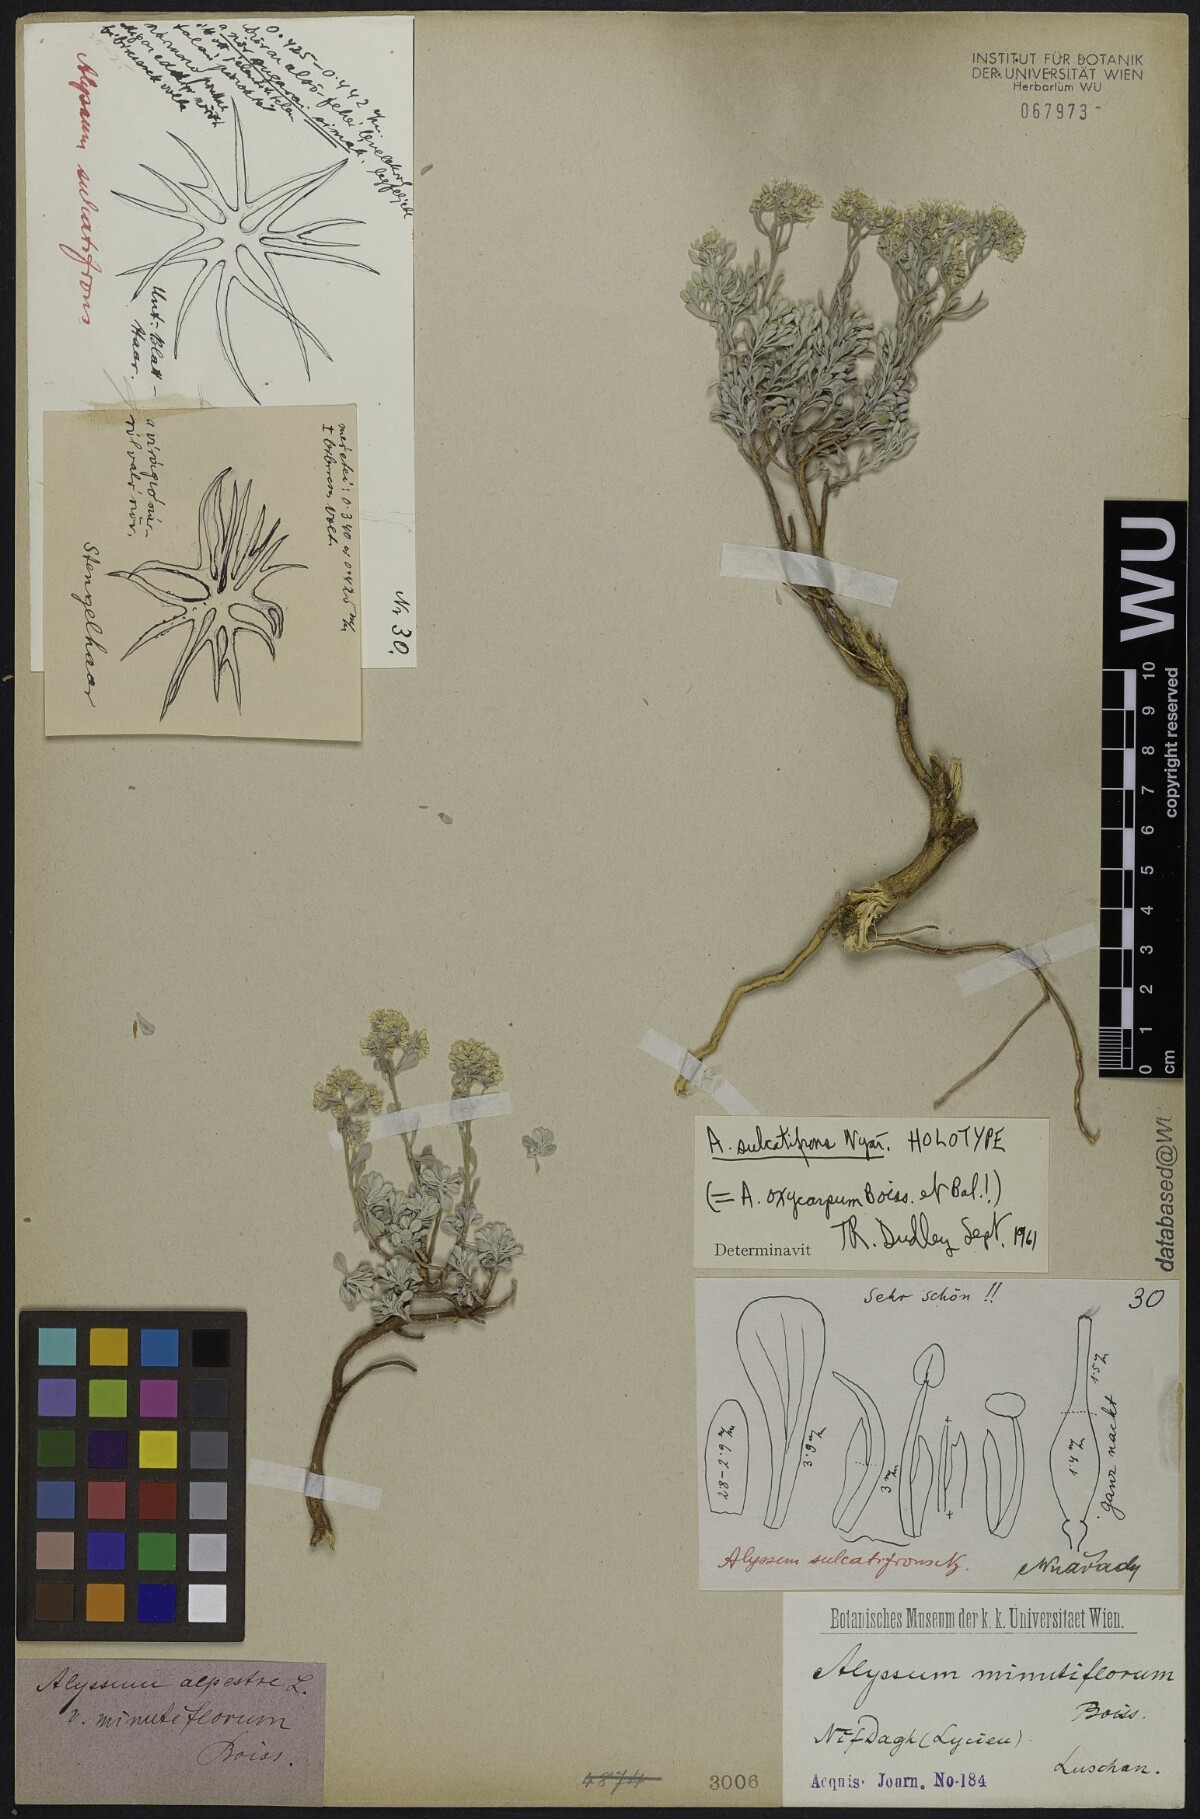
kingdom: Plantae
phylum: Tracheophyta
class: Magnoliopsida
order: Brassicales
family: Brassicaceae
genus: Odontarrhena
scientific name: Odontarrhena oxycarpa
